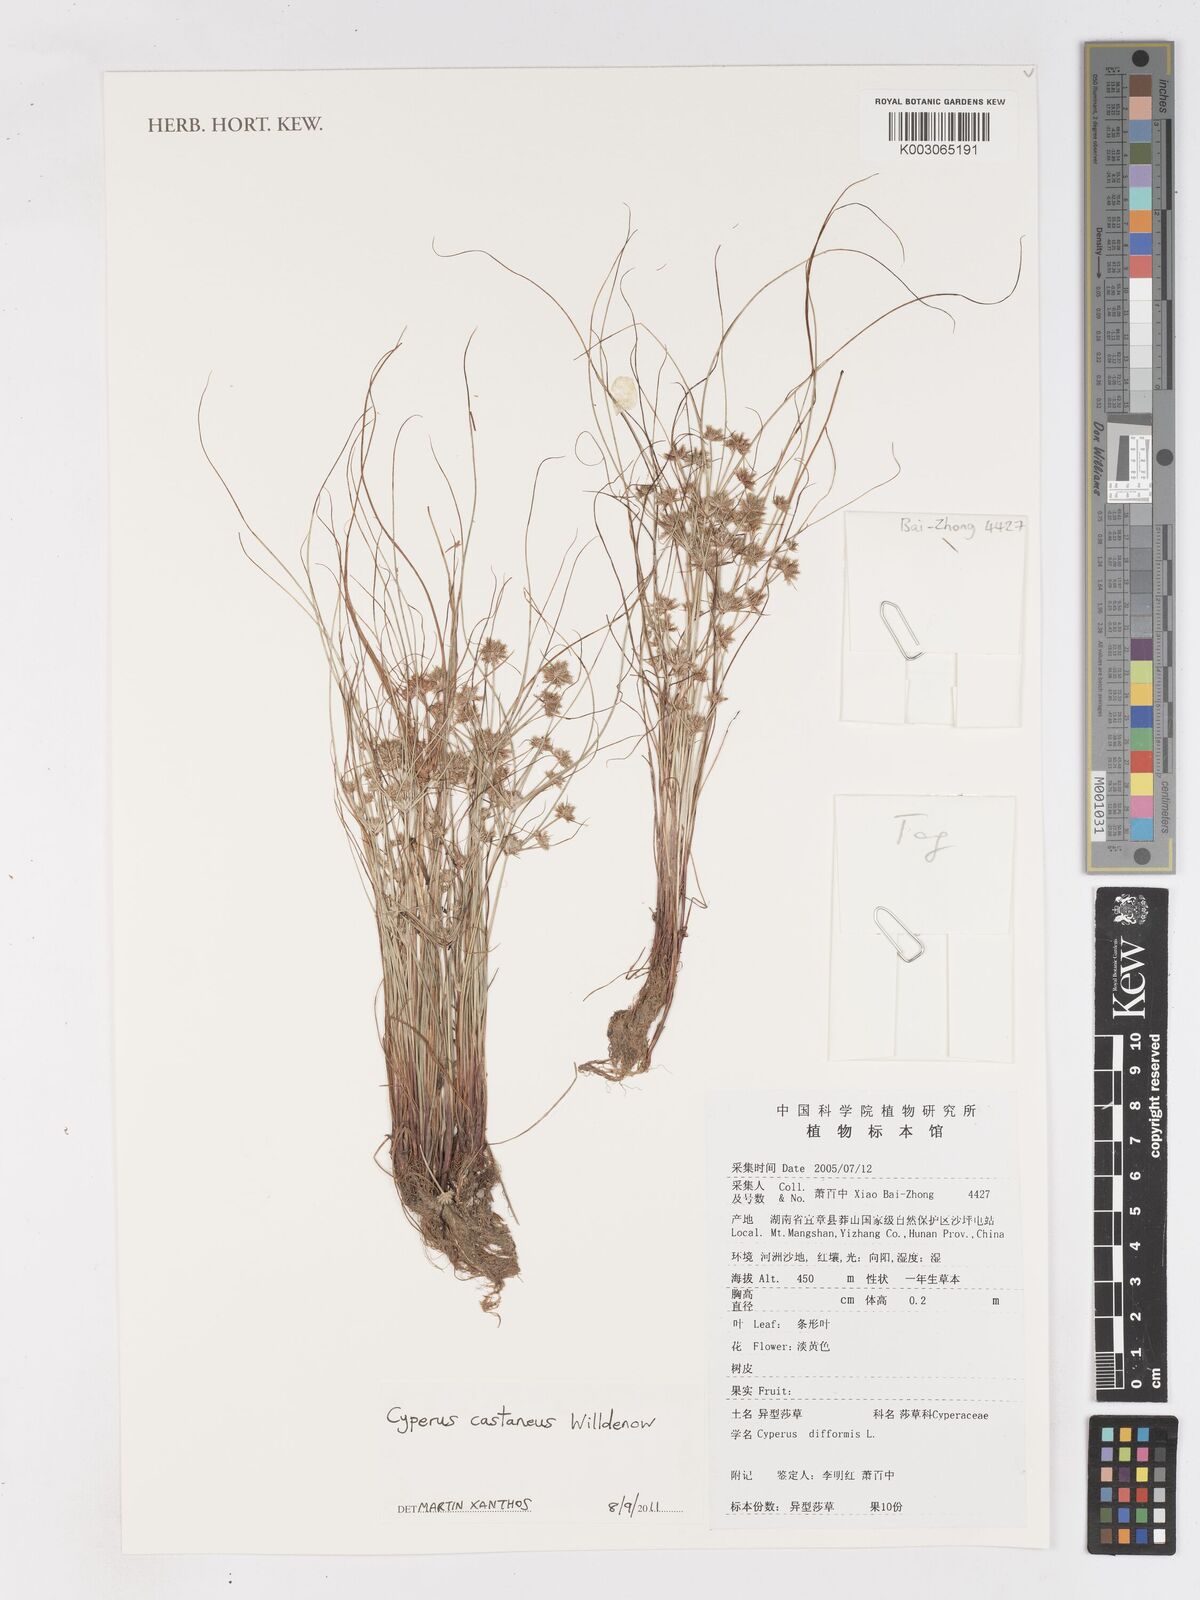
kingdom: Plantae
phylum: Tracheophyta
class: Liliopsida
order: Poales
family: Cyperaceae
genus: Cyperus
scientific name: Cyperus castaneus
